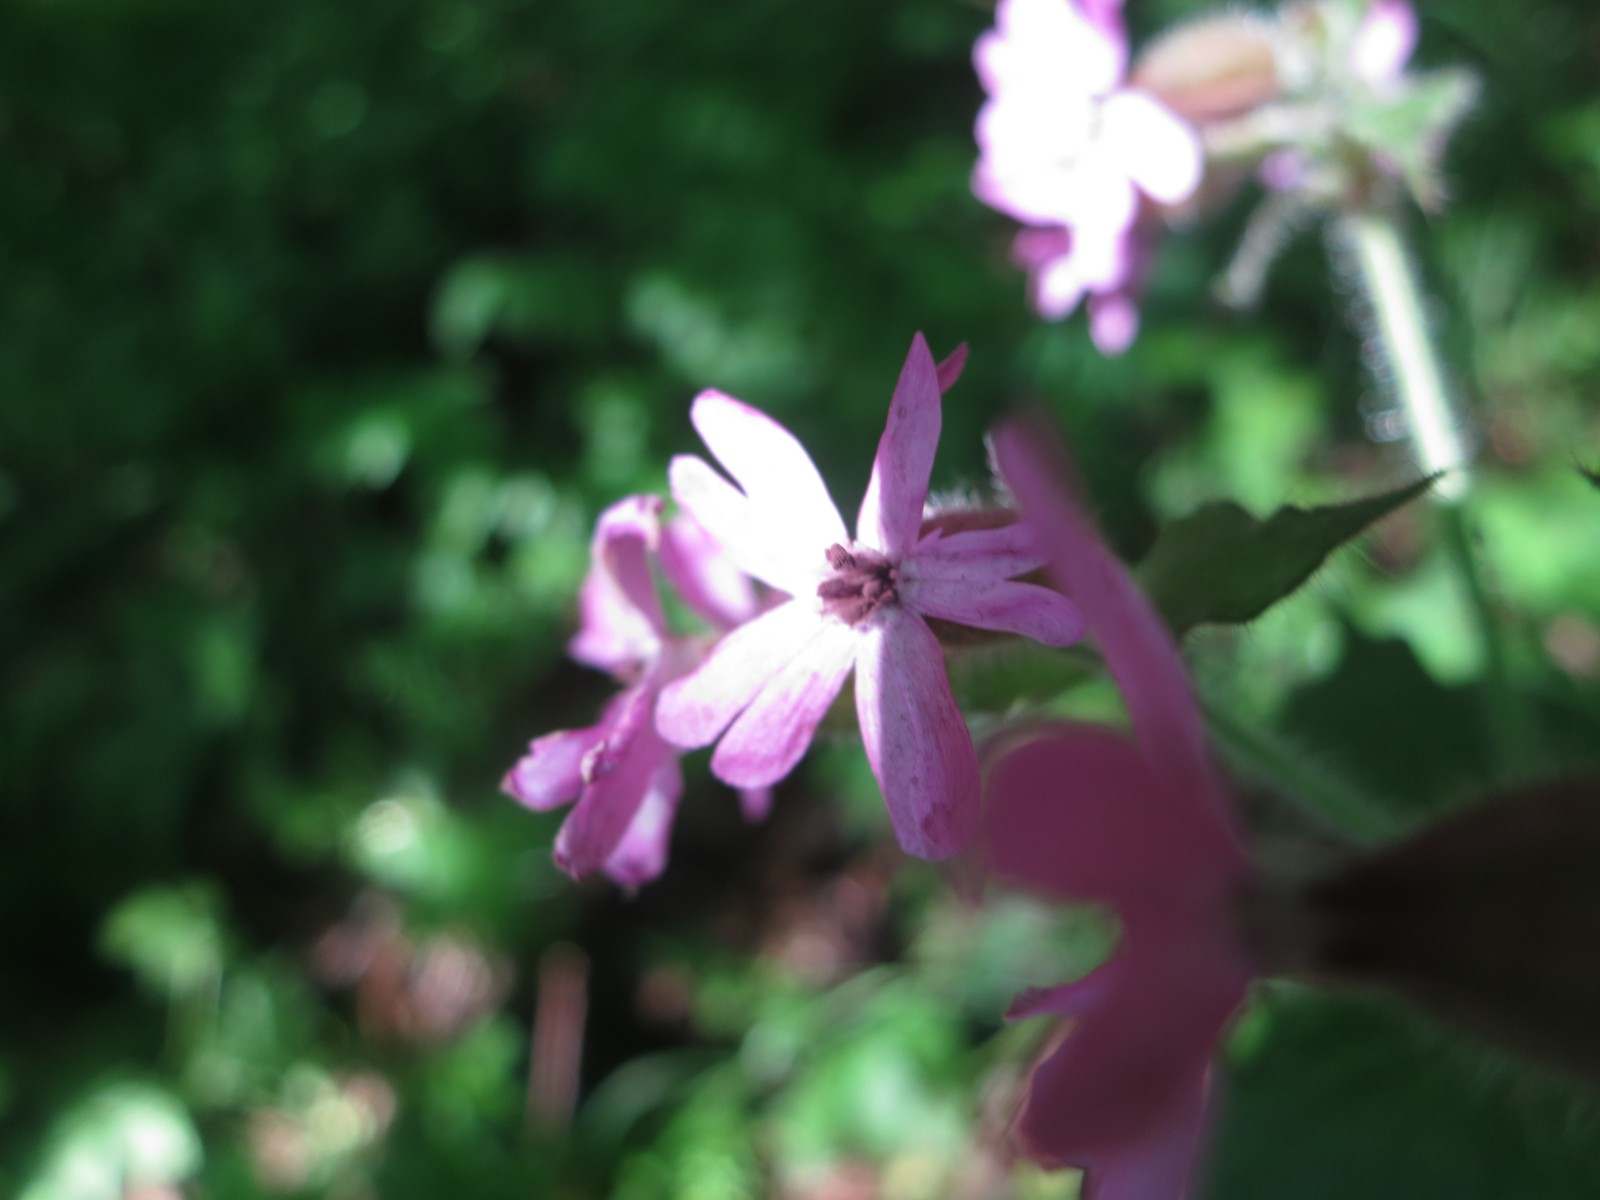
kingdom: Fungi
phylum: Basidiomycota
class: Microbotryomycetes
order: Microbotryales
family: Microbotryaceae
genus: Microbotryum
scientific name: Microbotryum silenes-dioicae
